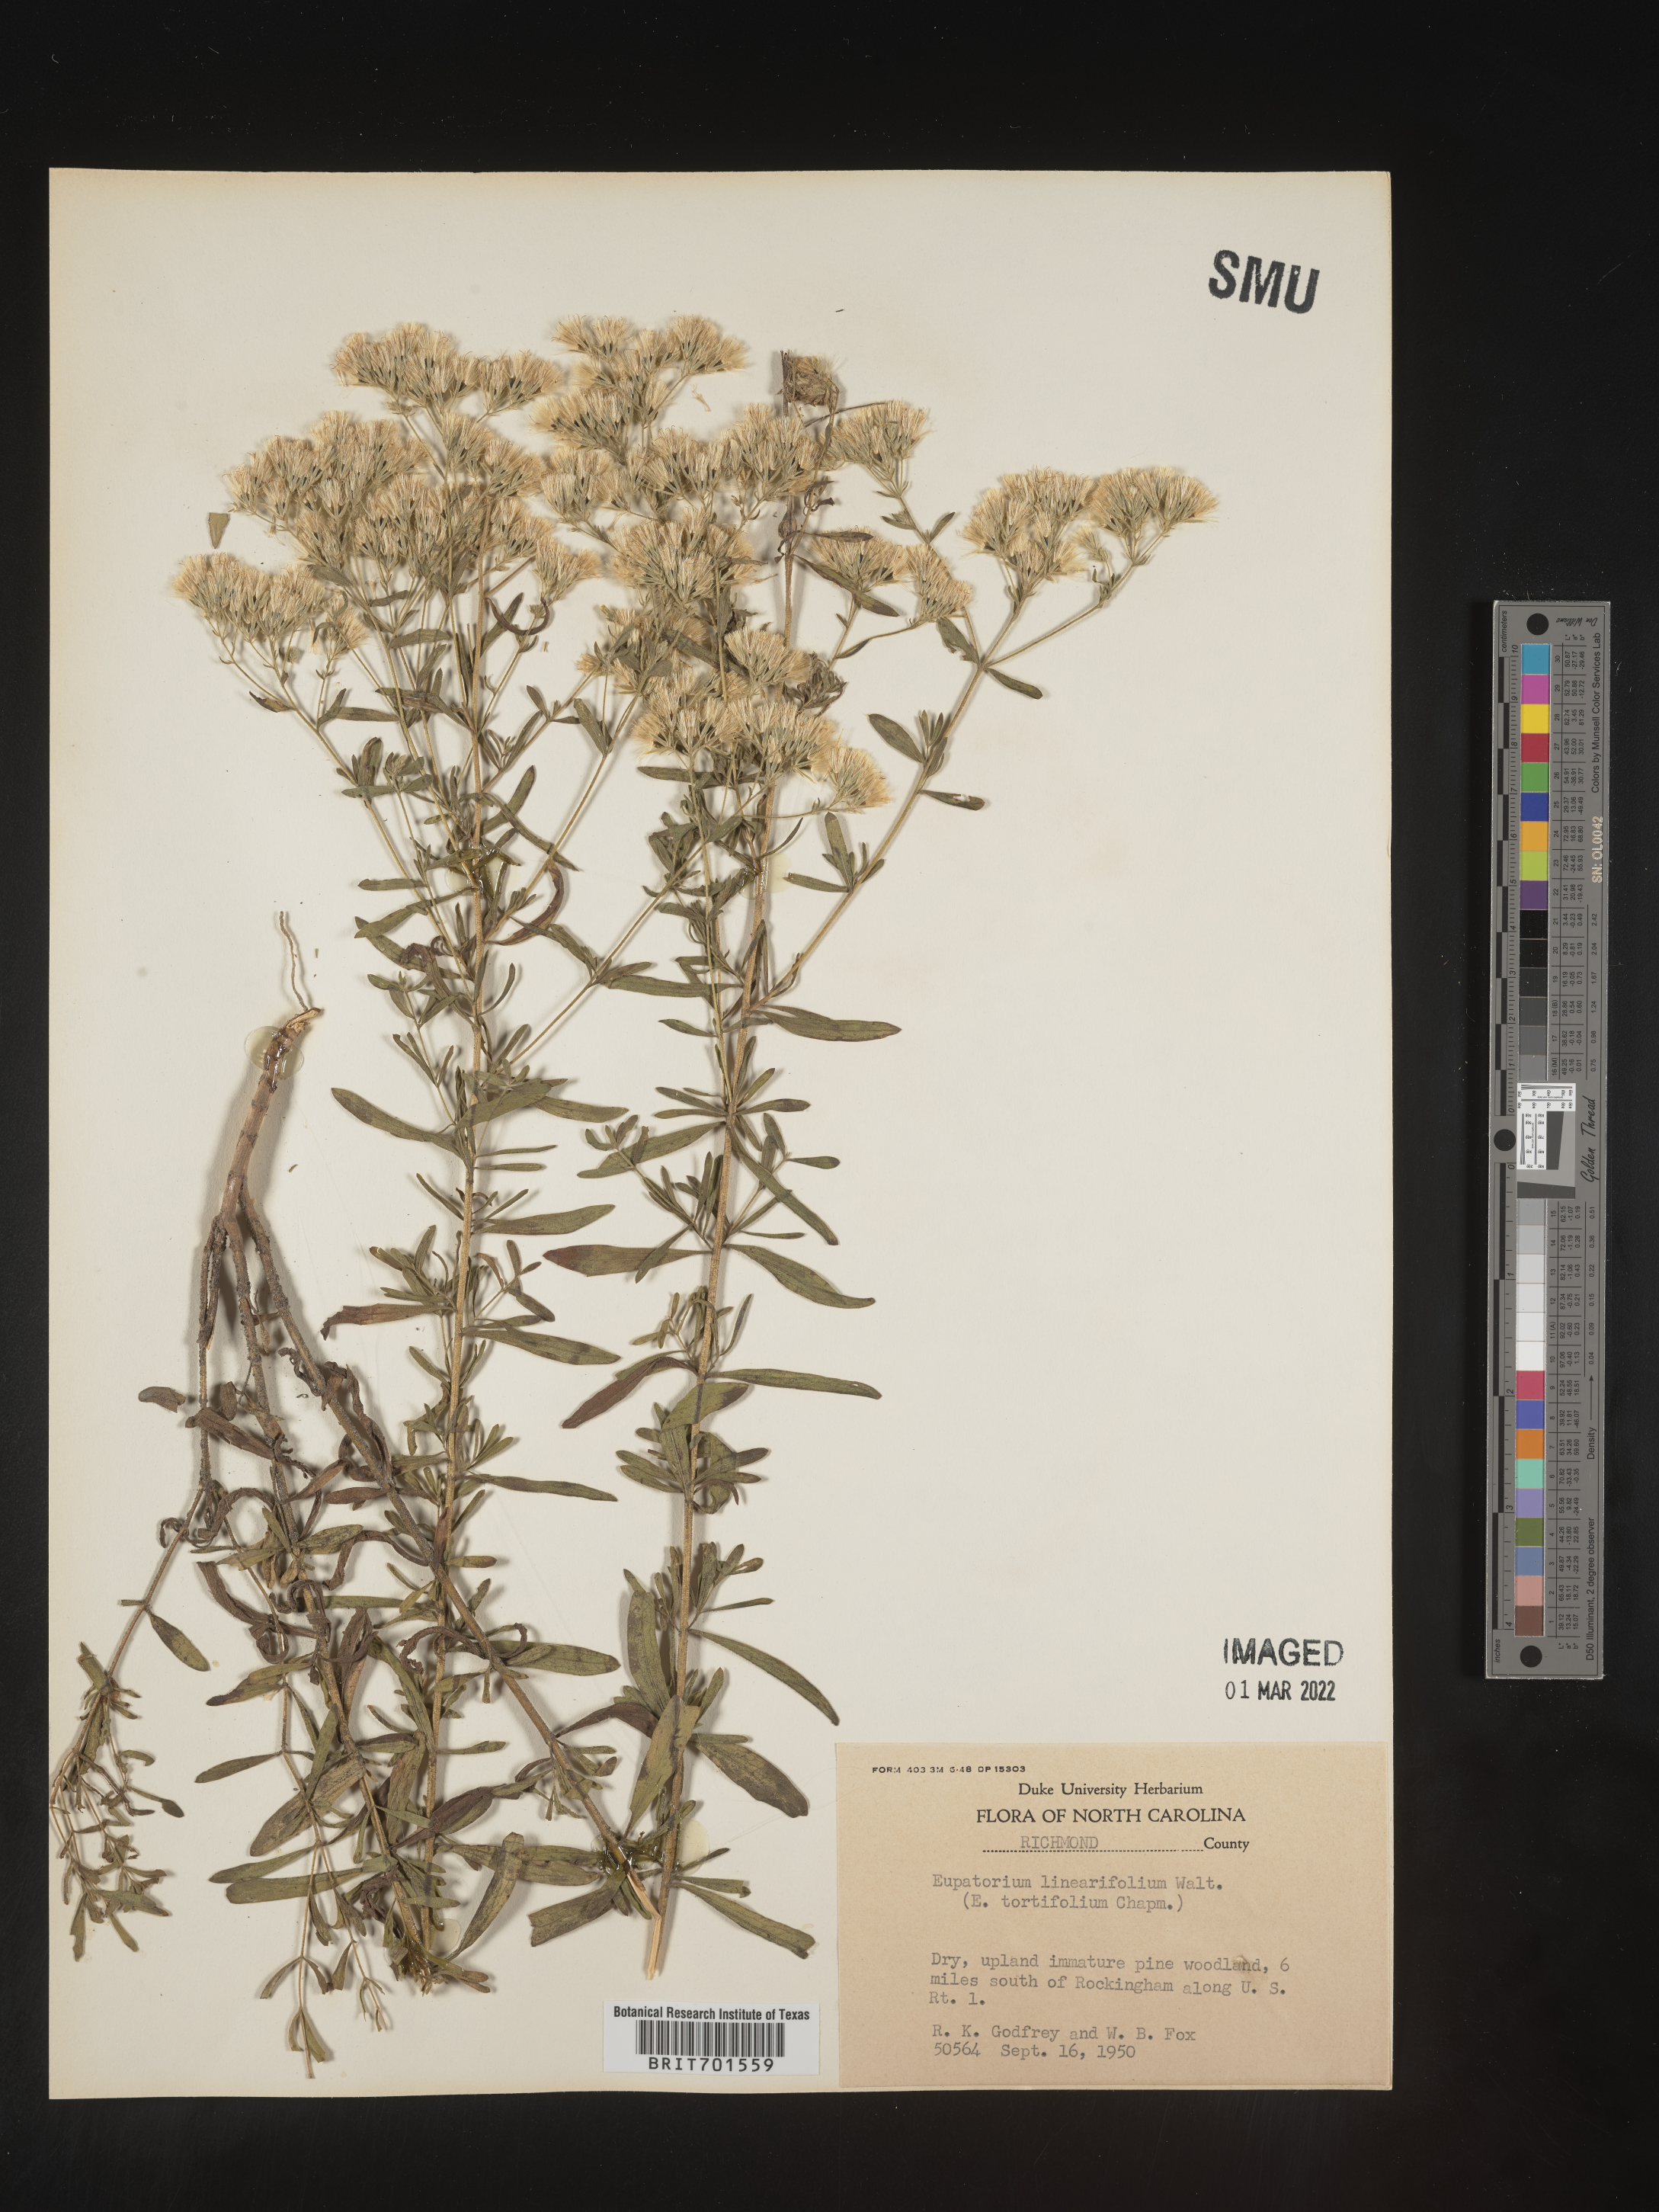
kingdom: Plantae
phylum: Tracheophyta
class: Magnoliopsida
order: Asterales
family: Asteraceae
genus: Eupatorium
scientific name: Eupatorium linearifolium
